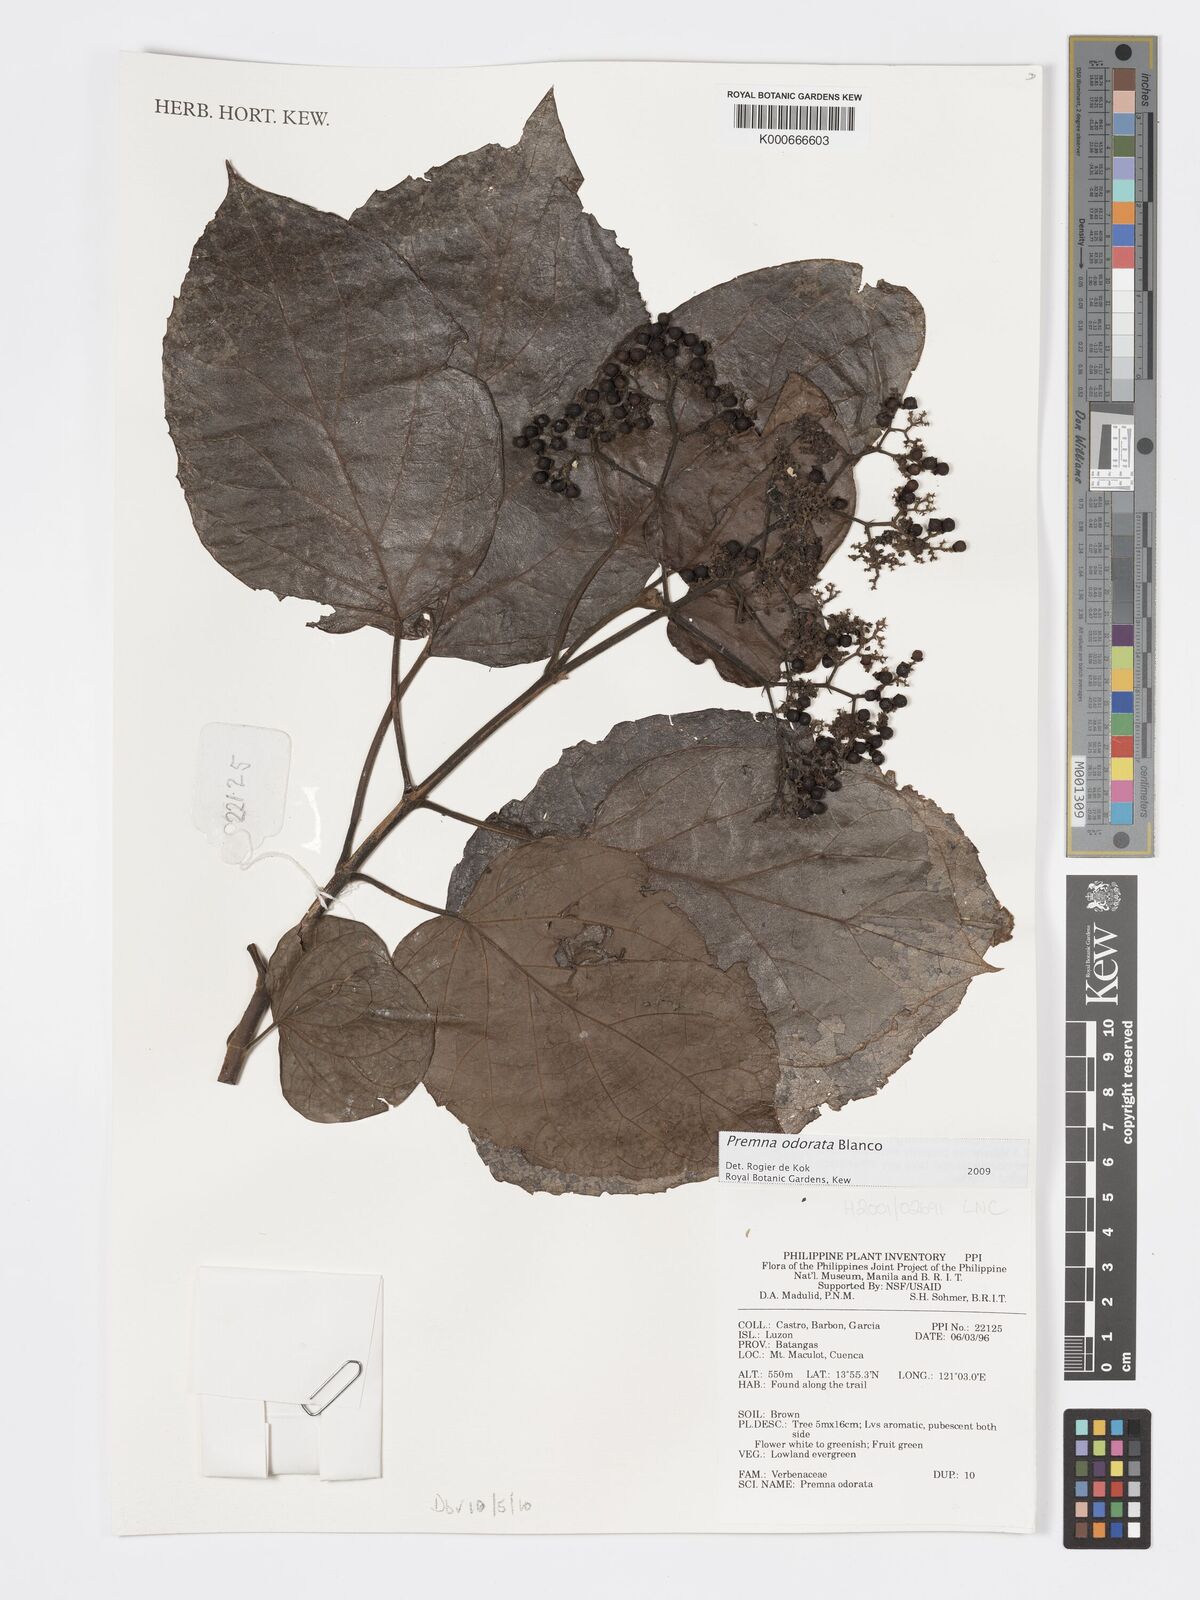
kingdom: Plantae
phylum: Tracheophyta
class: Magnoliopsida
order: Lamiales
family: Lamiaceae
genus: Premna
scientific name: Premna odorata
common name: Fragrant premna
